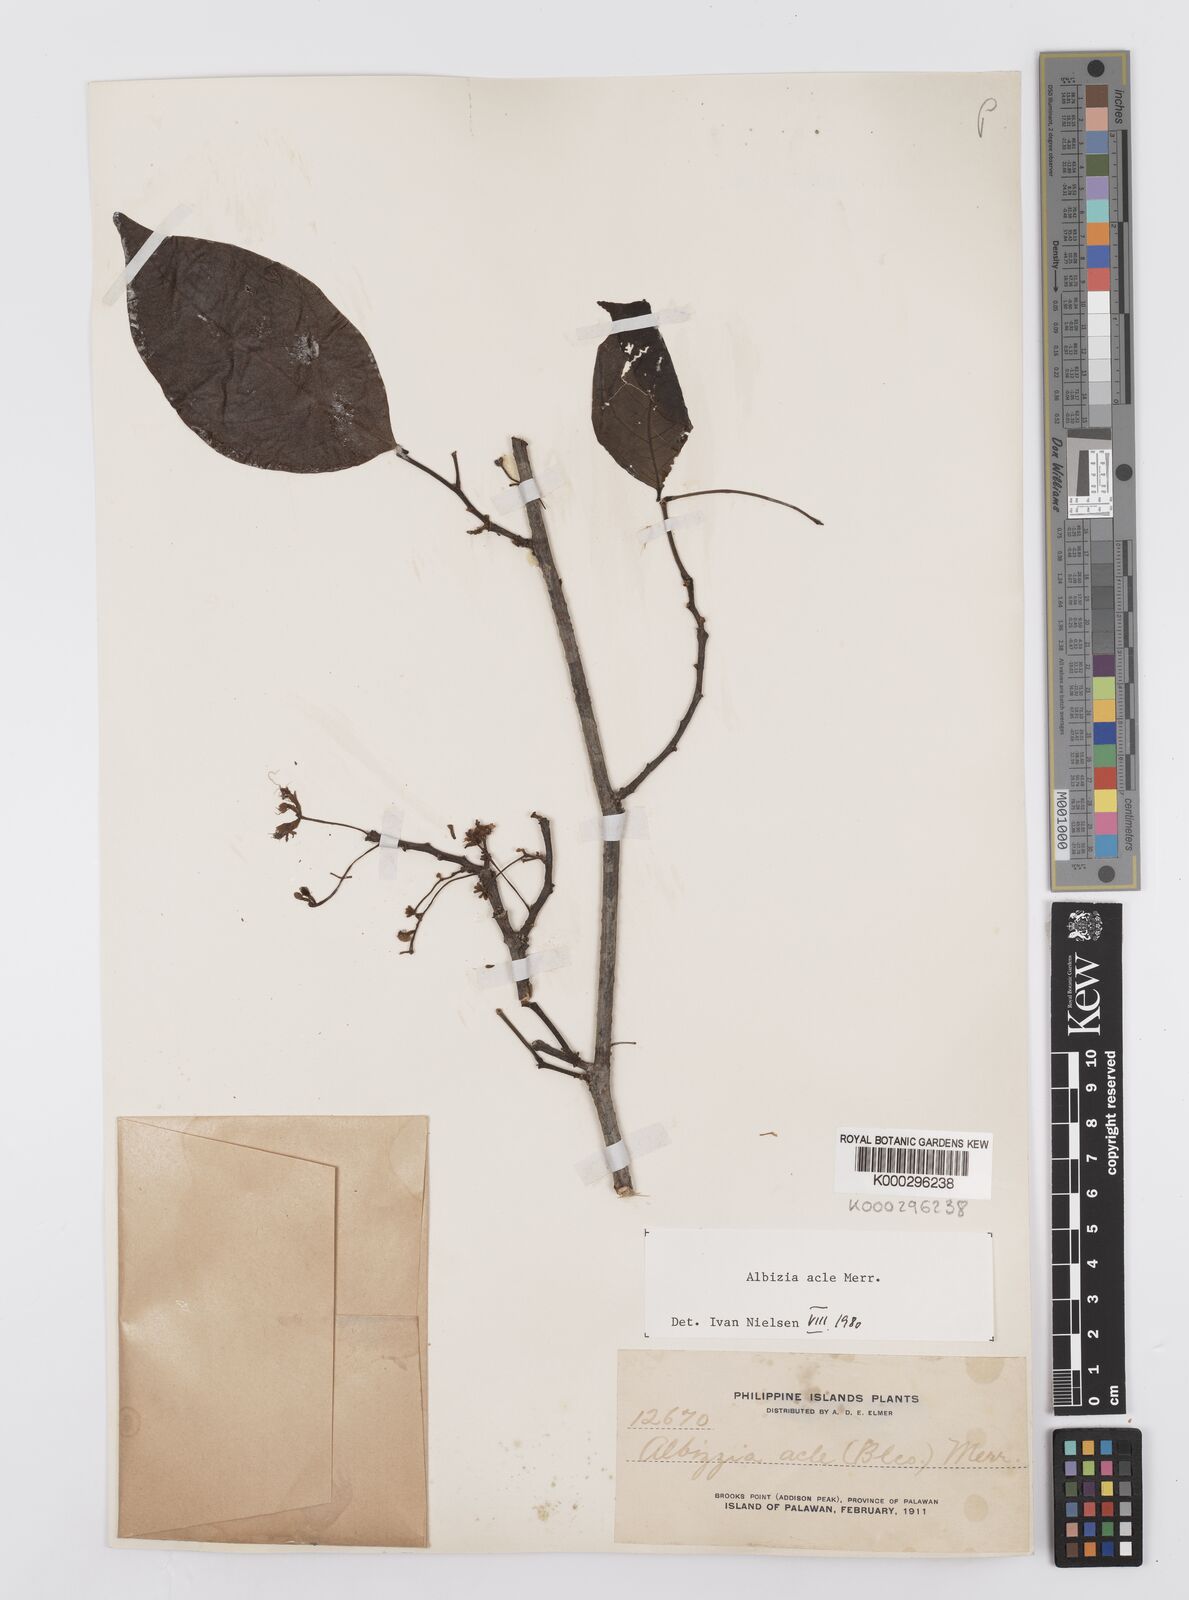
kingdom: Plantae
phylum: Tracheophyta
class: Magnoliopsida
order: Fabales
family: Fabaceae
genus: Albizia
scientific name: Albizia acle
